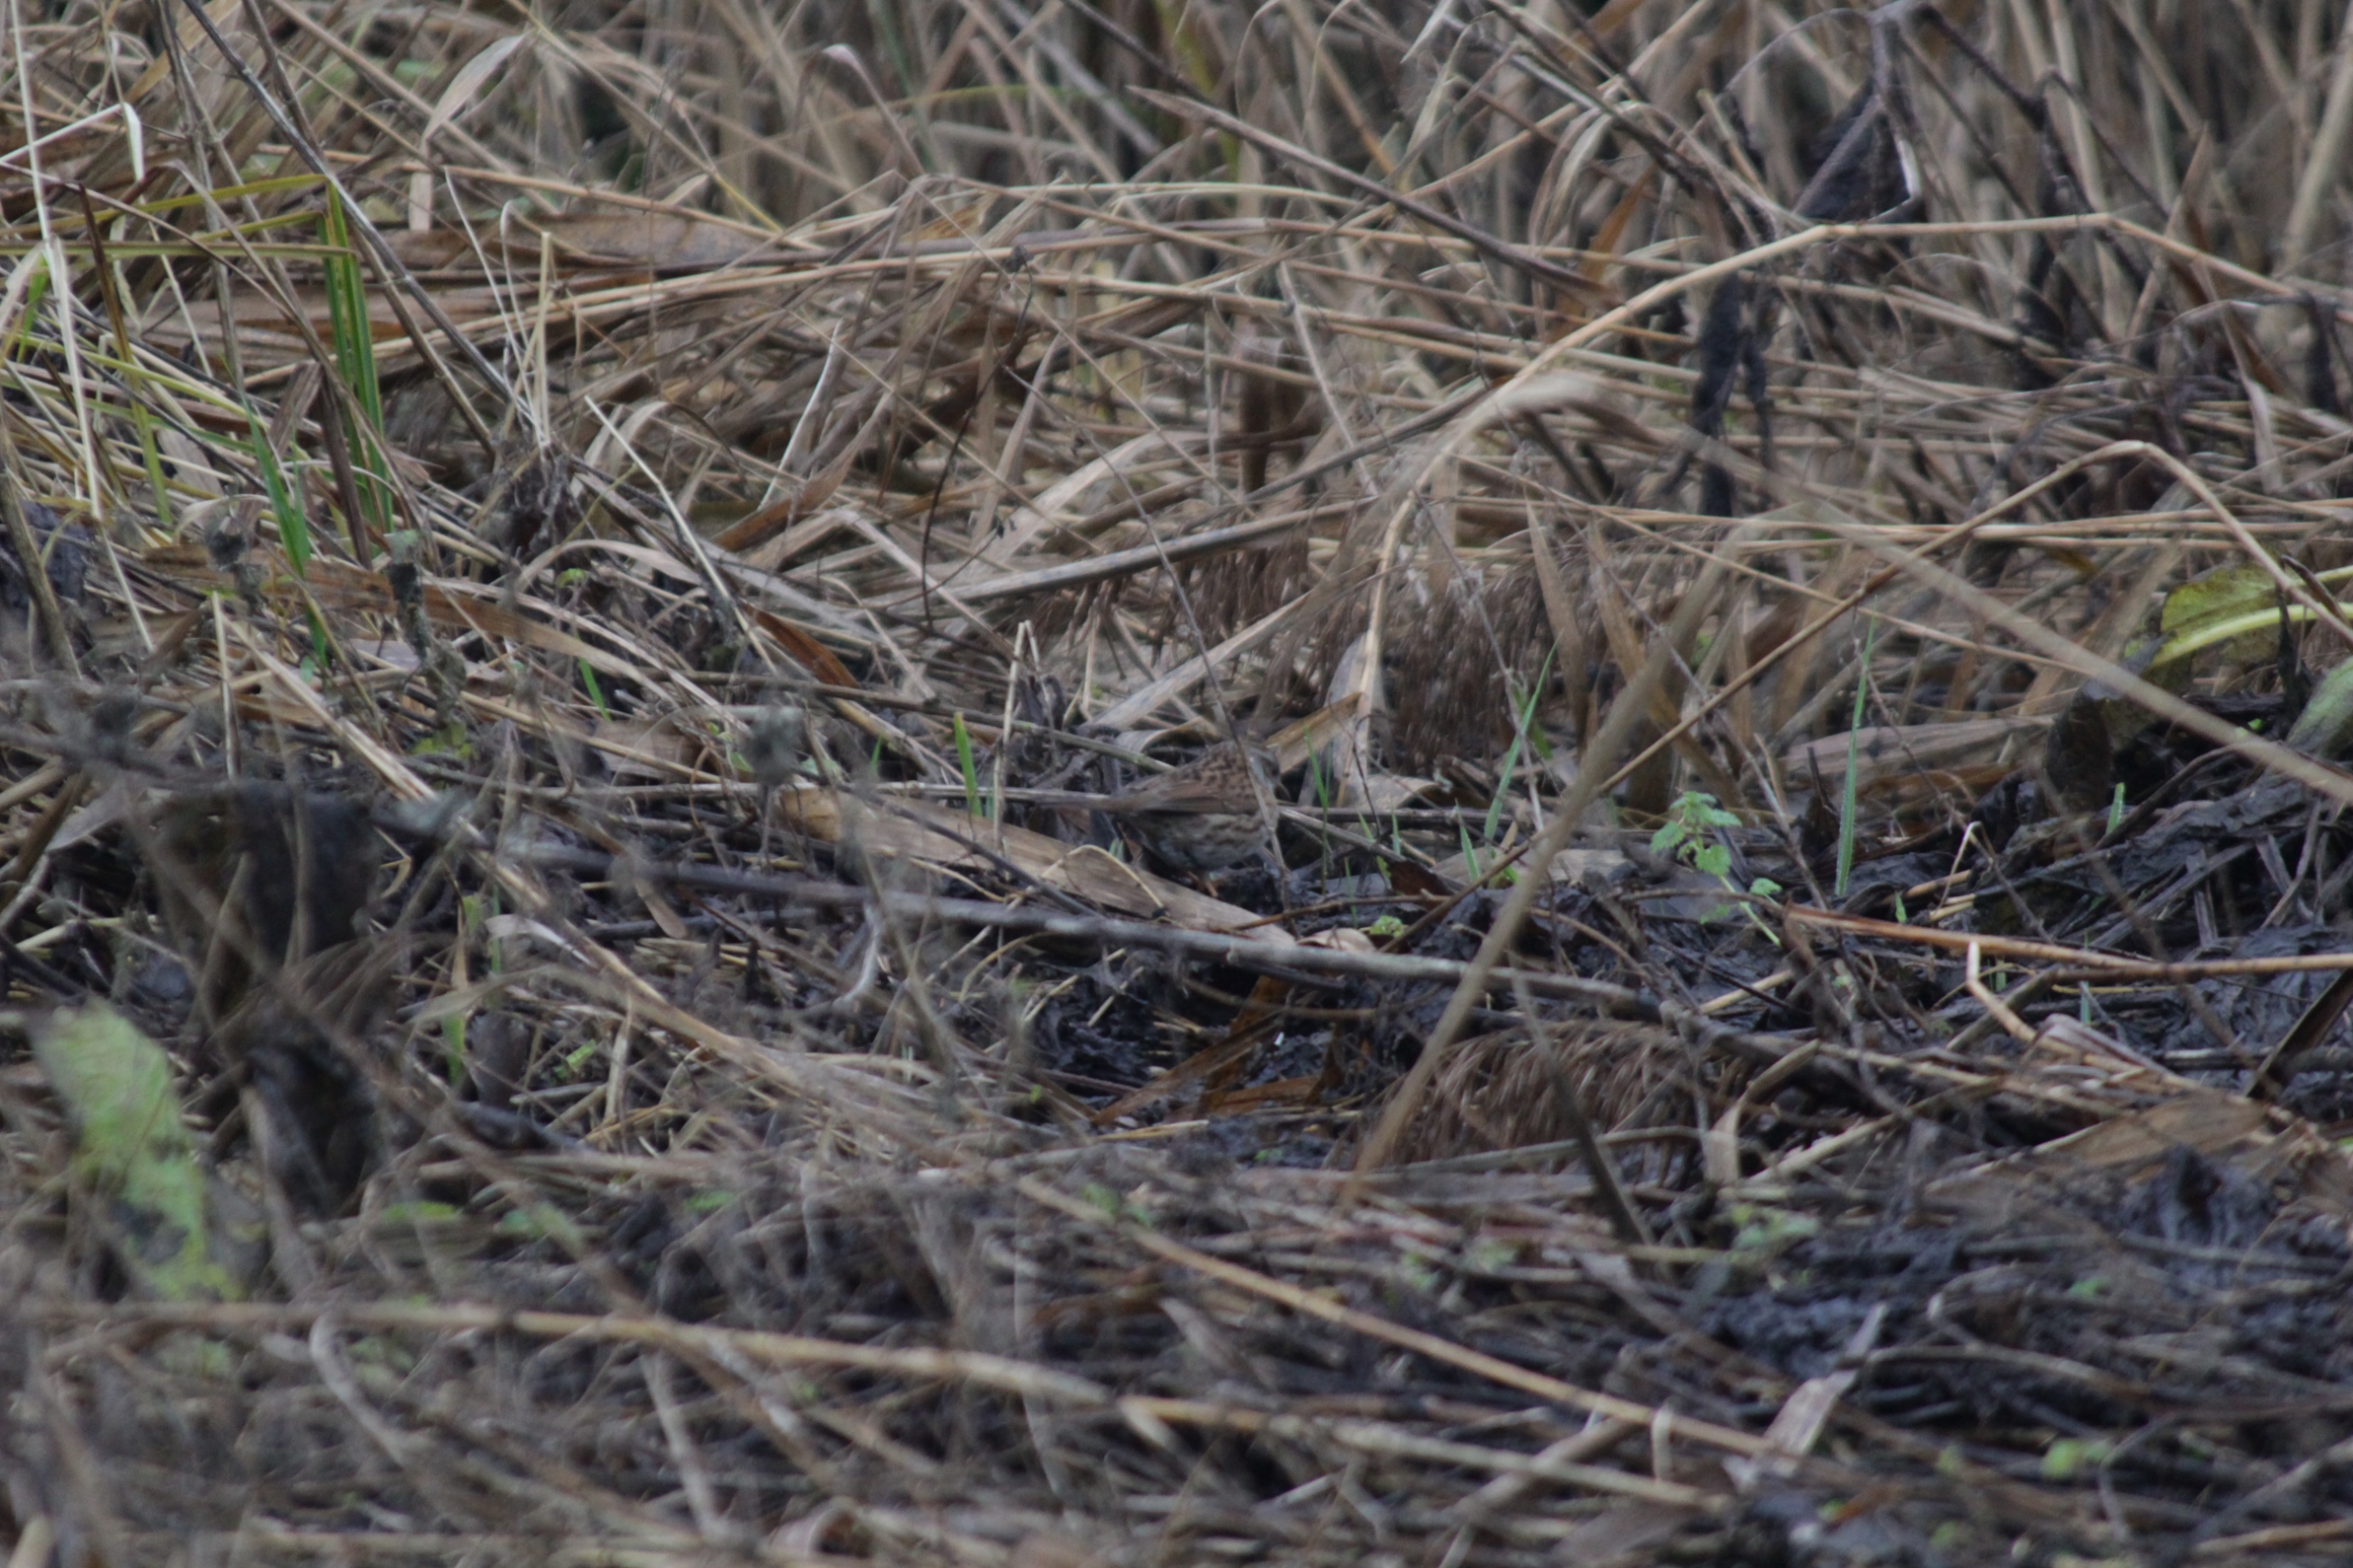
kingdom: Animalia
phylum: Chordata
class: Aves
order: Passeriformes
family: Prunellidae
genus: Prunella
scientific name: Prunella modularis
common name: Jernspurv
